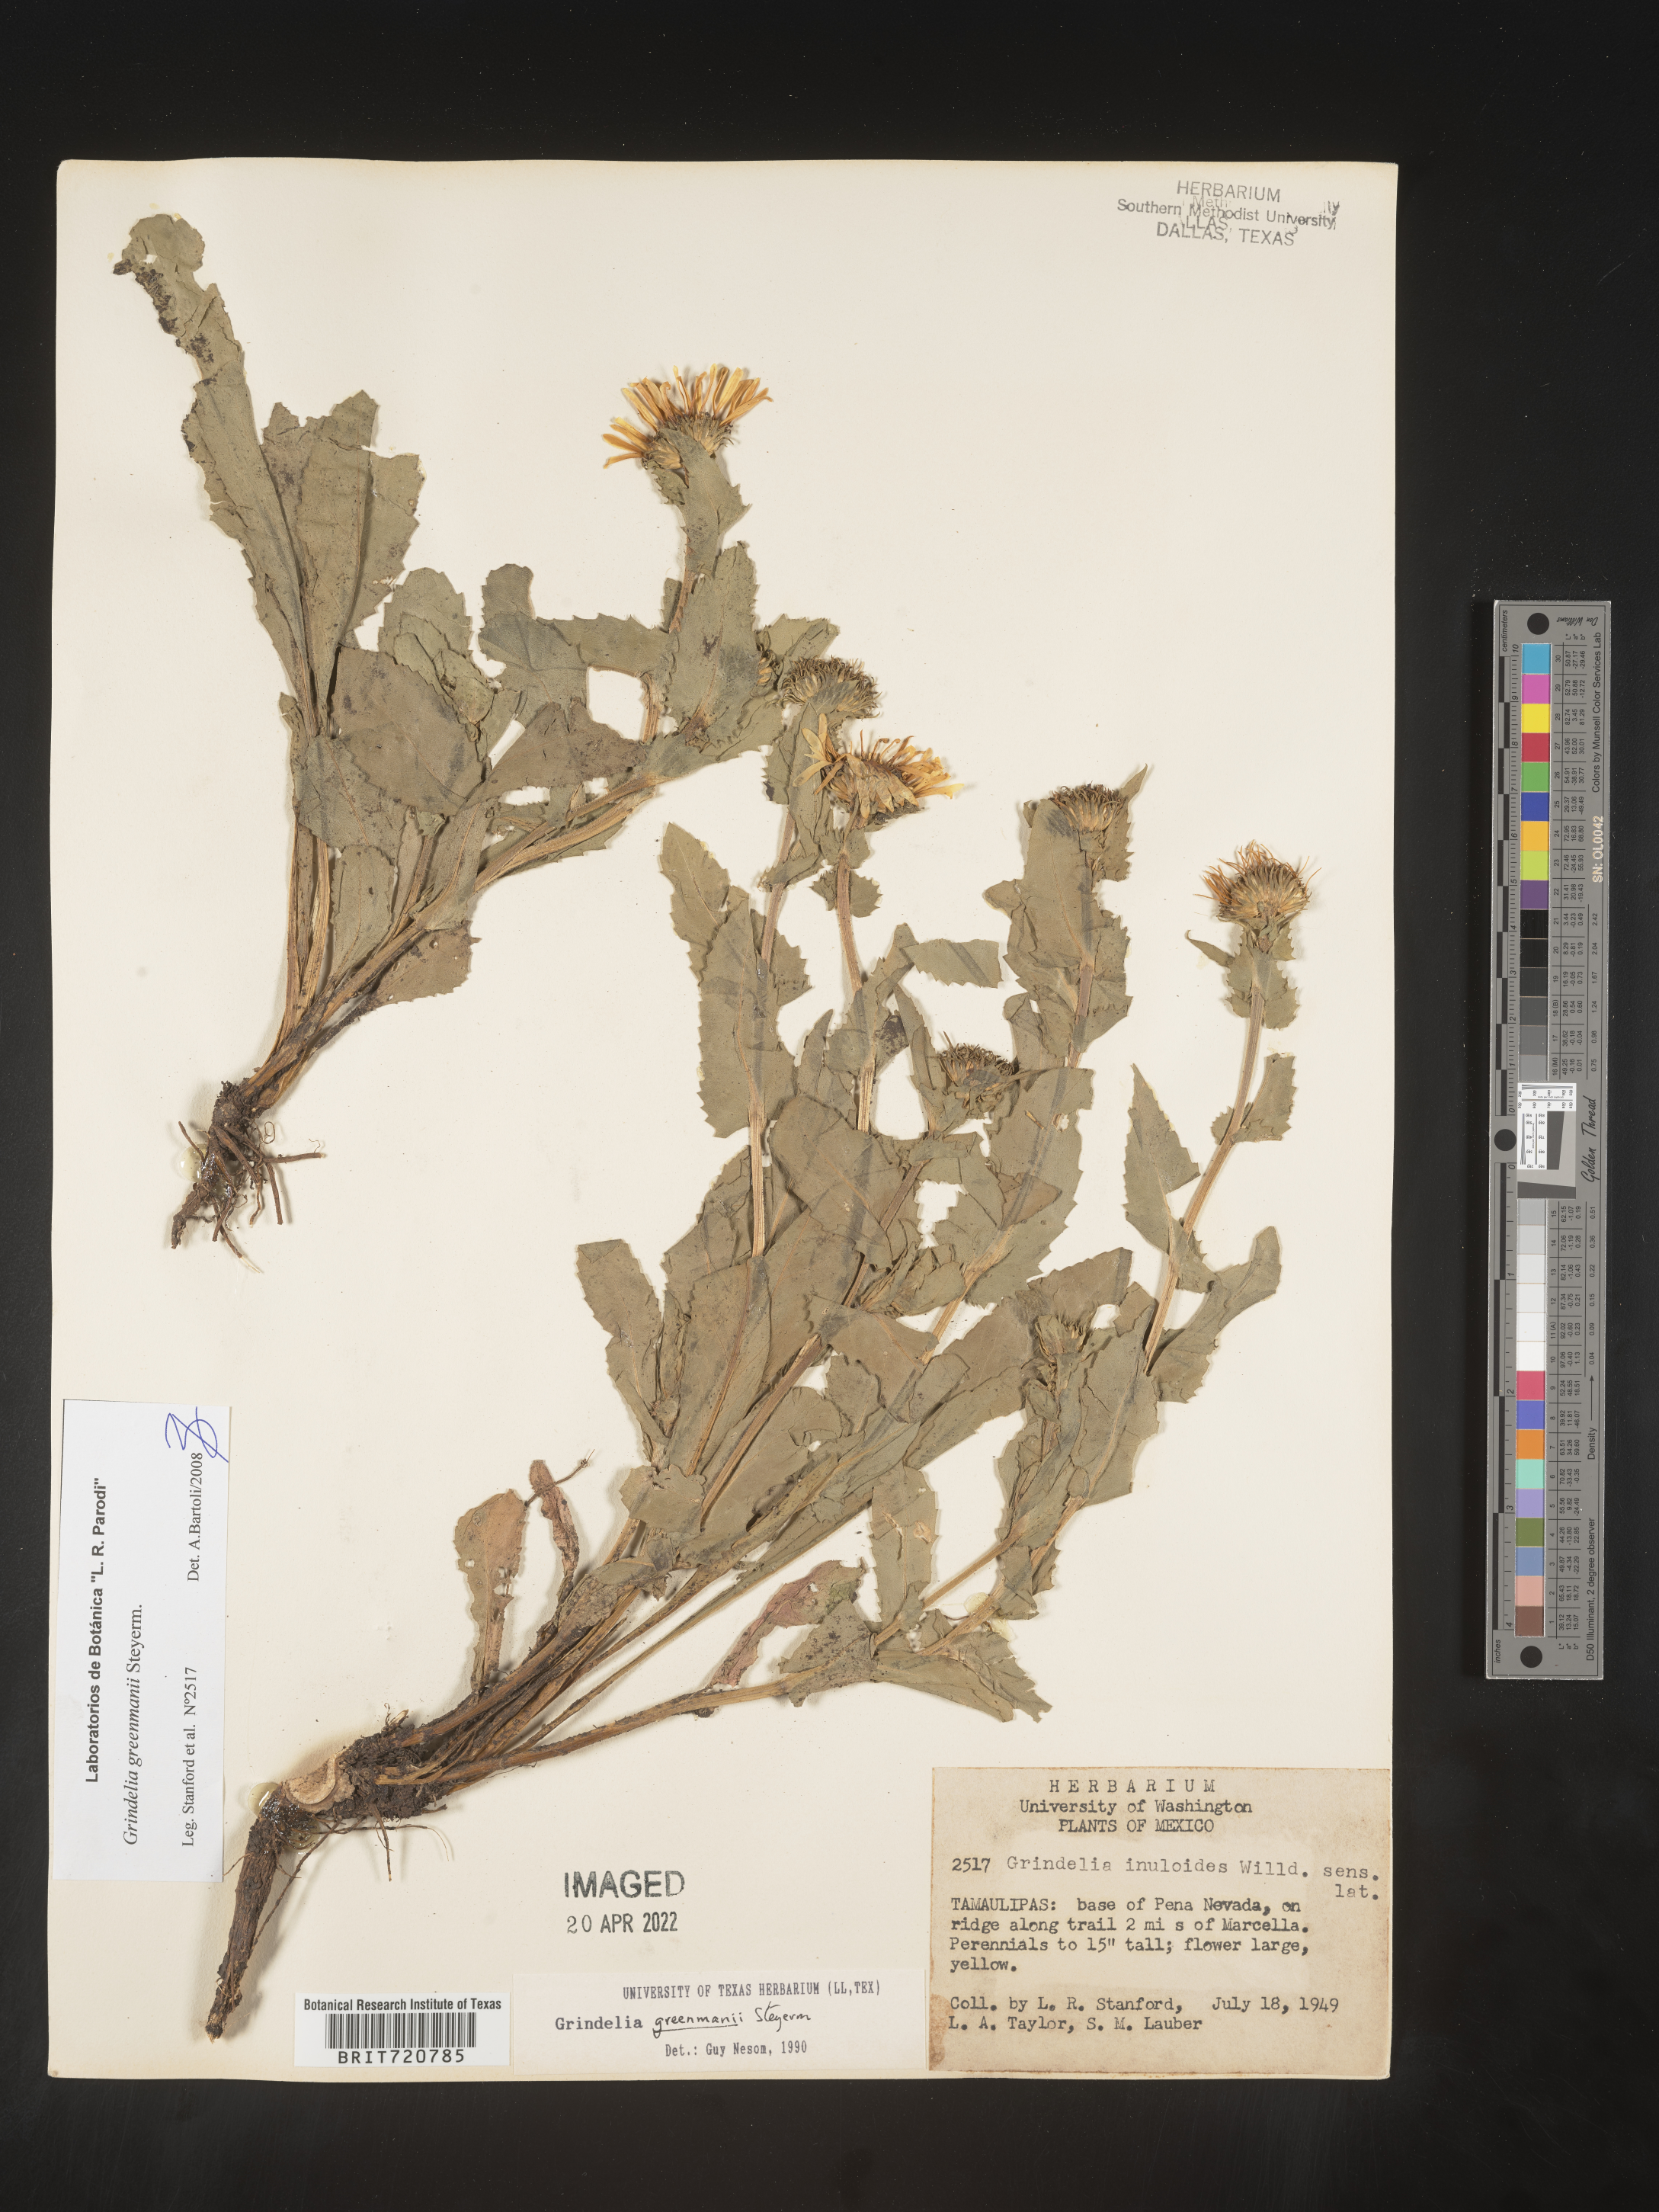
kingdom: Plantae
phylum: Tracheophyta
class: Magnoliopsida
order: Asterales
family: Asteraceae
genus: Grindelia
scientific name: Grindelia
